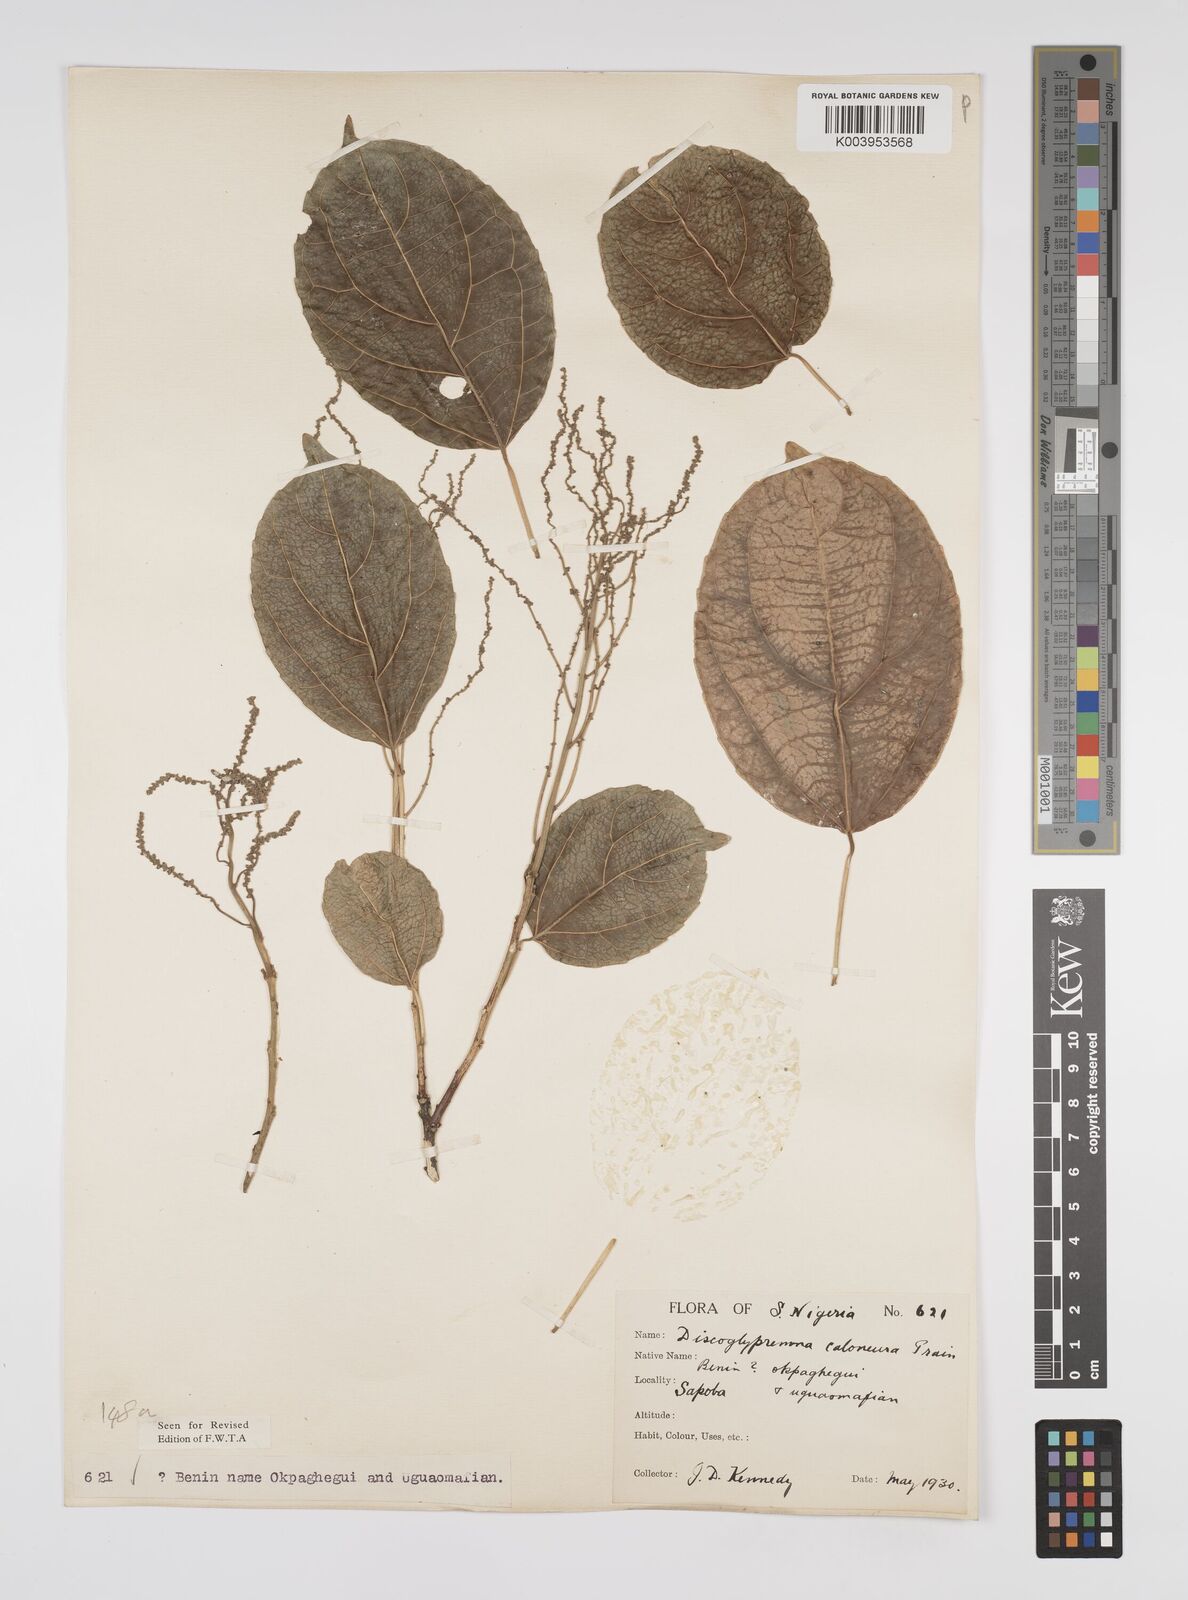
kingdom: Plantae
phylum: Tracheophyta
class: Magnoliopsida
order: Malpighiales
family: Euphorbiaceae
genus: Discoglypremna
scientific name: Discoglypremna caloneura
